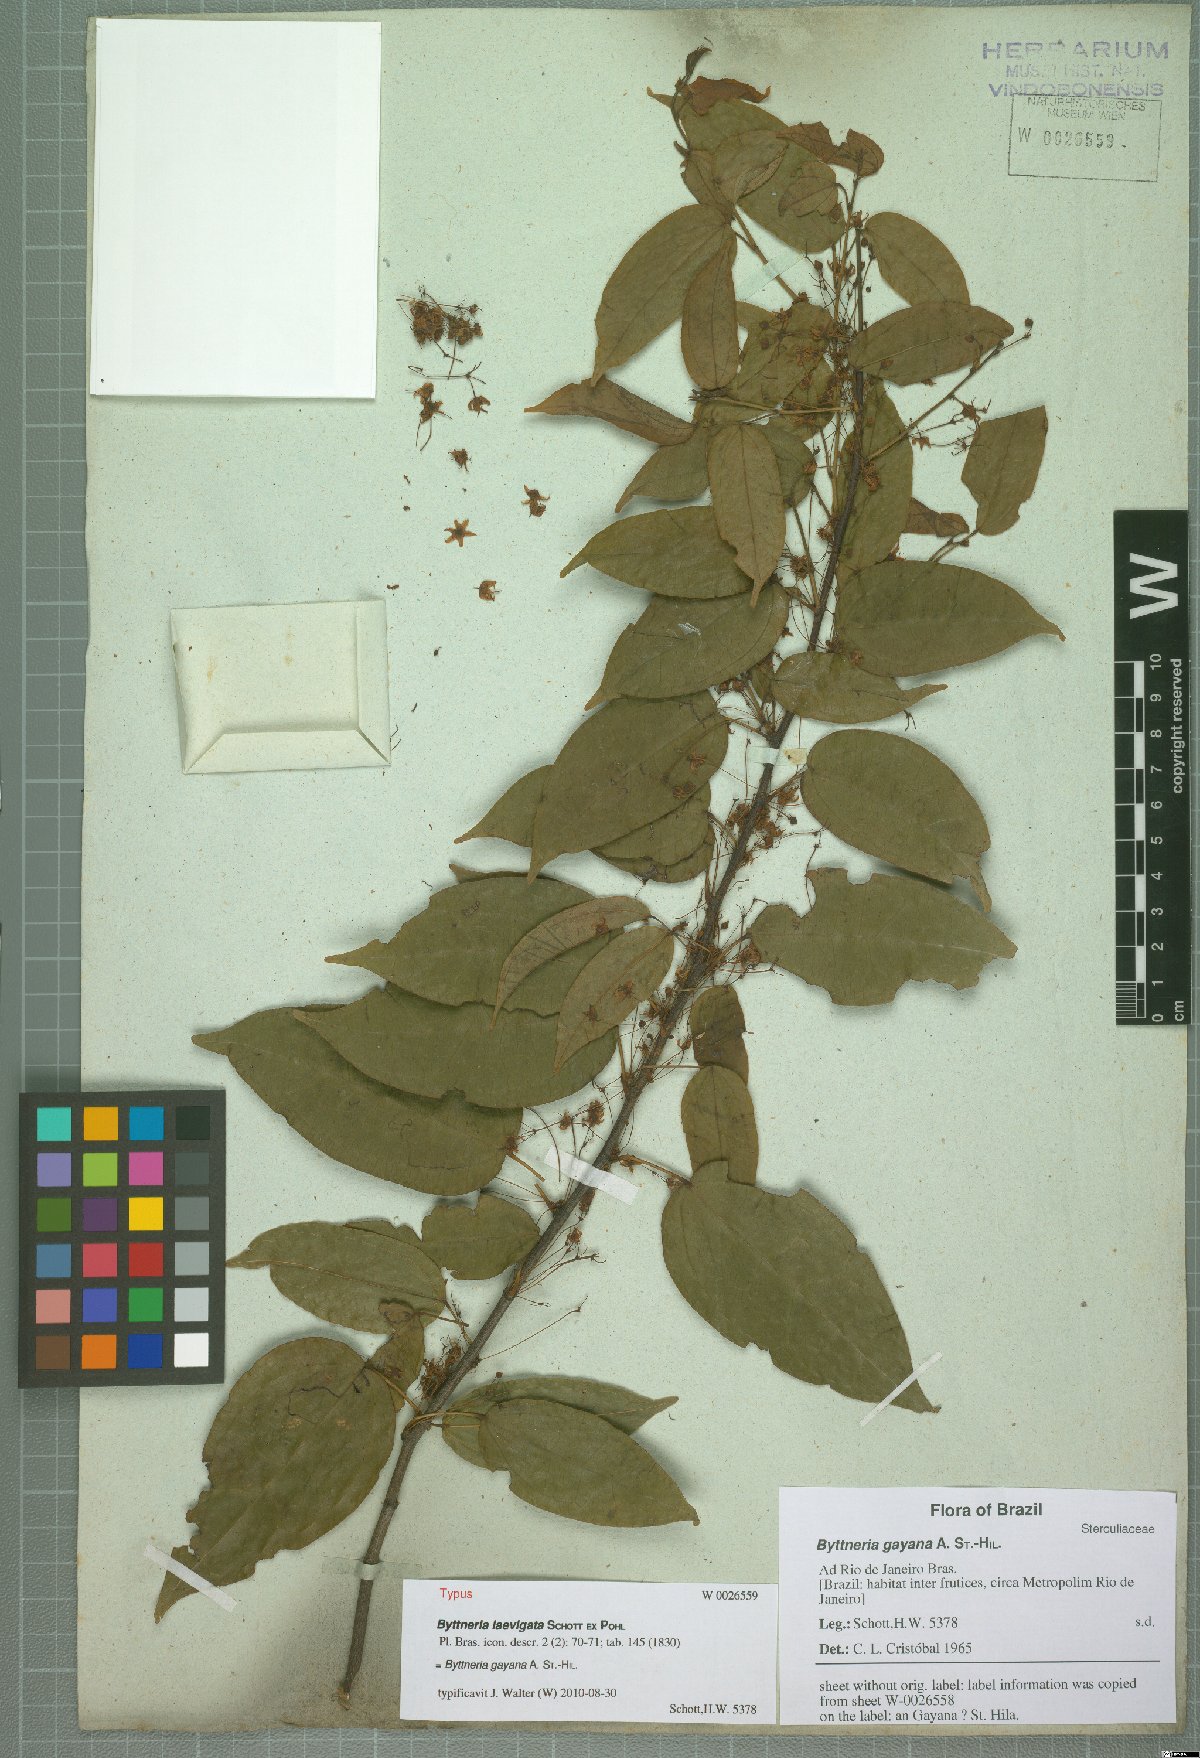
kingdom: Plantae
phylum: Tracheophyta
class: Magnoliopsida
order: Malvales
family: Malvaceae
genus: Byttneria
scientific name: Byttneria gayana
